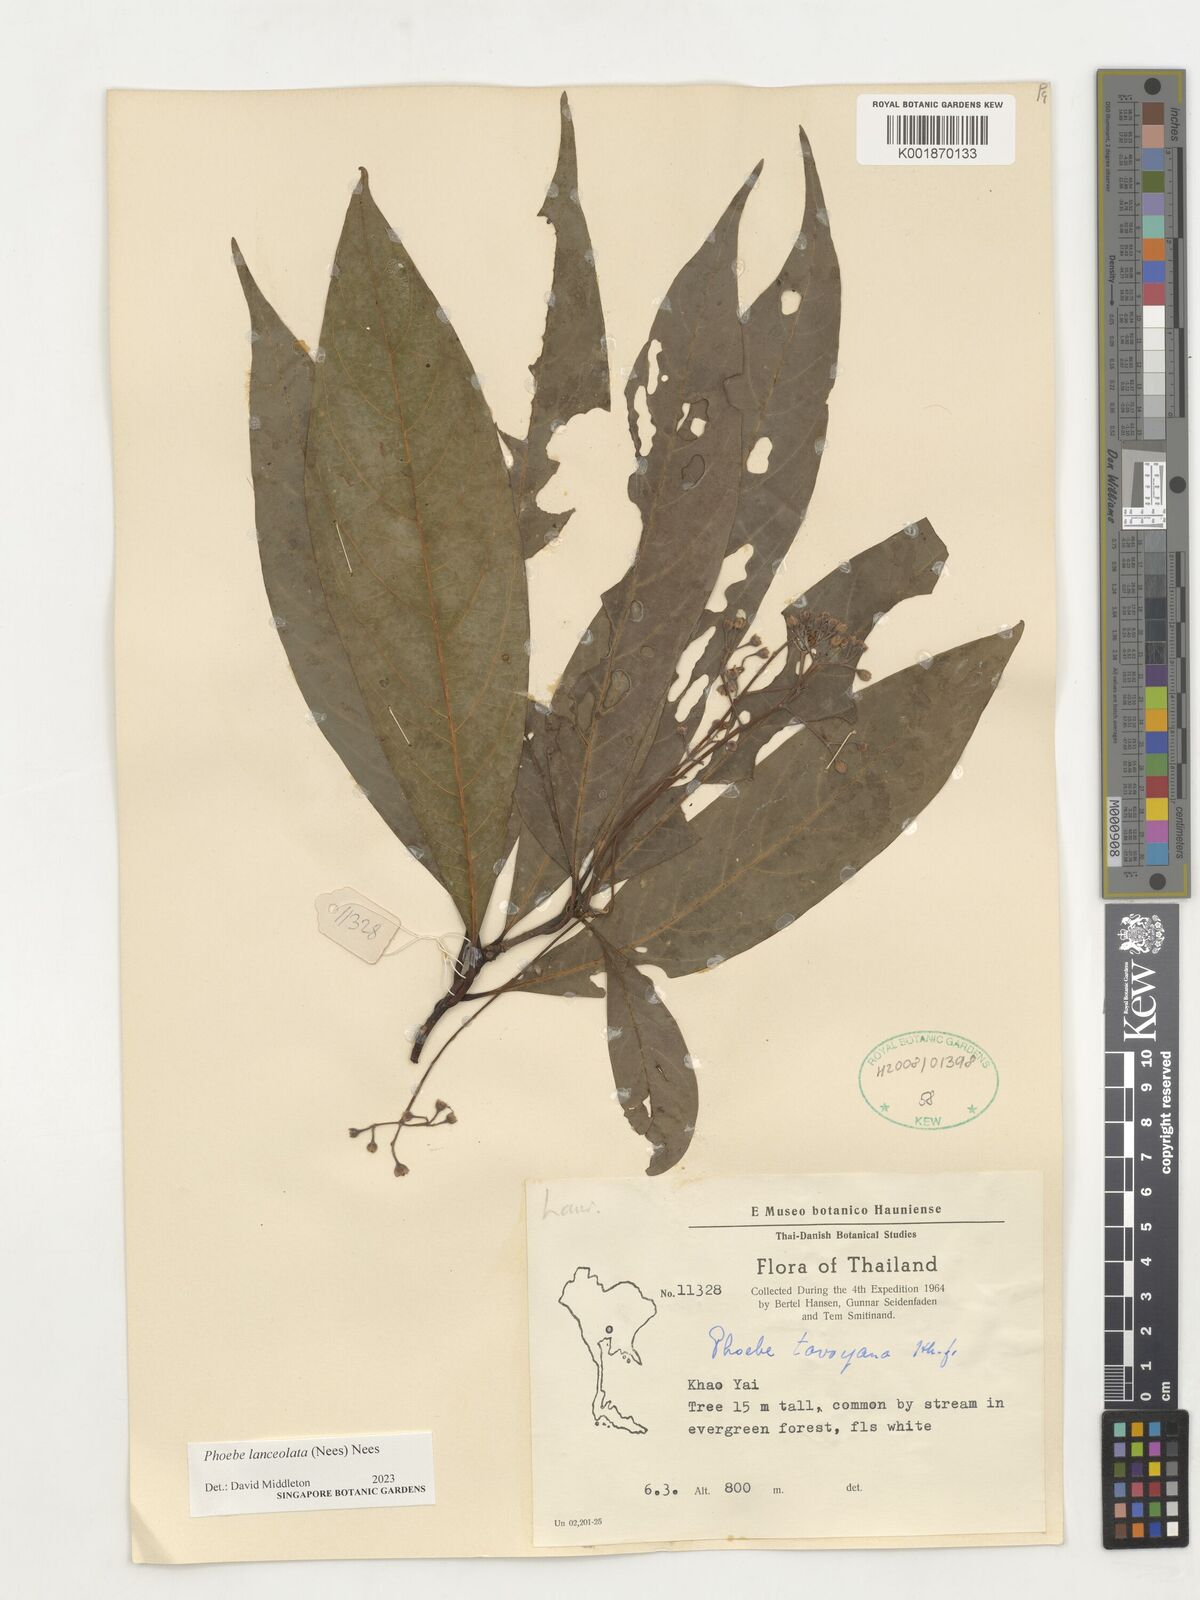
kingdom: Plantae
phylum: Tracheophyta
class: Magnoliopsida
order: Laurales
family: Lauraceae
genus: Phoebe
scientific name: Phoebe lanceolata
